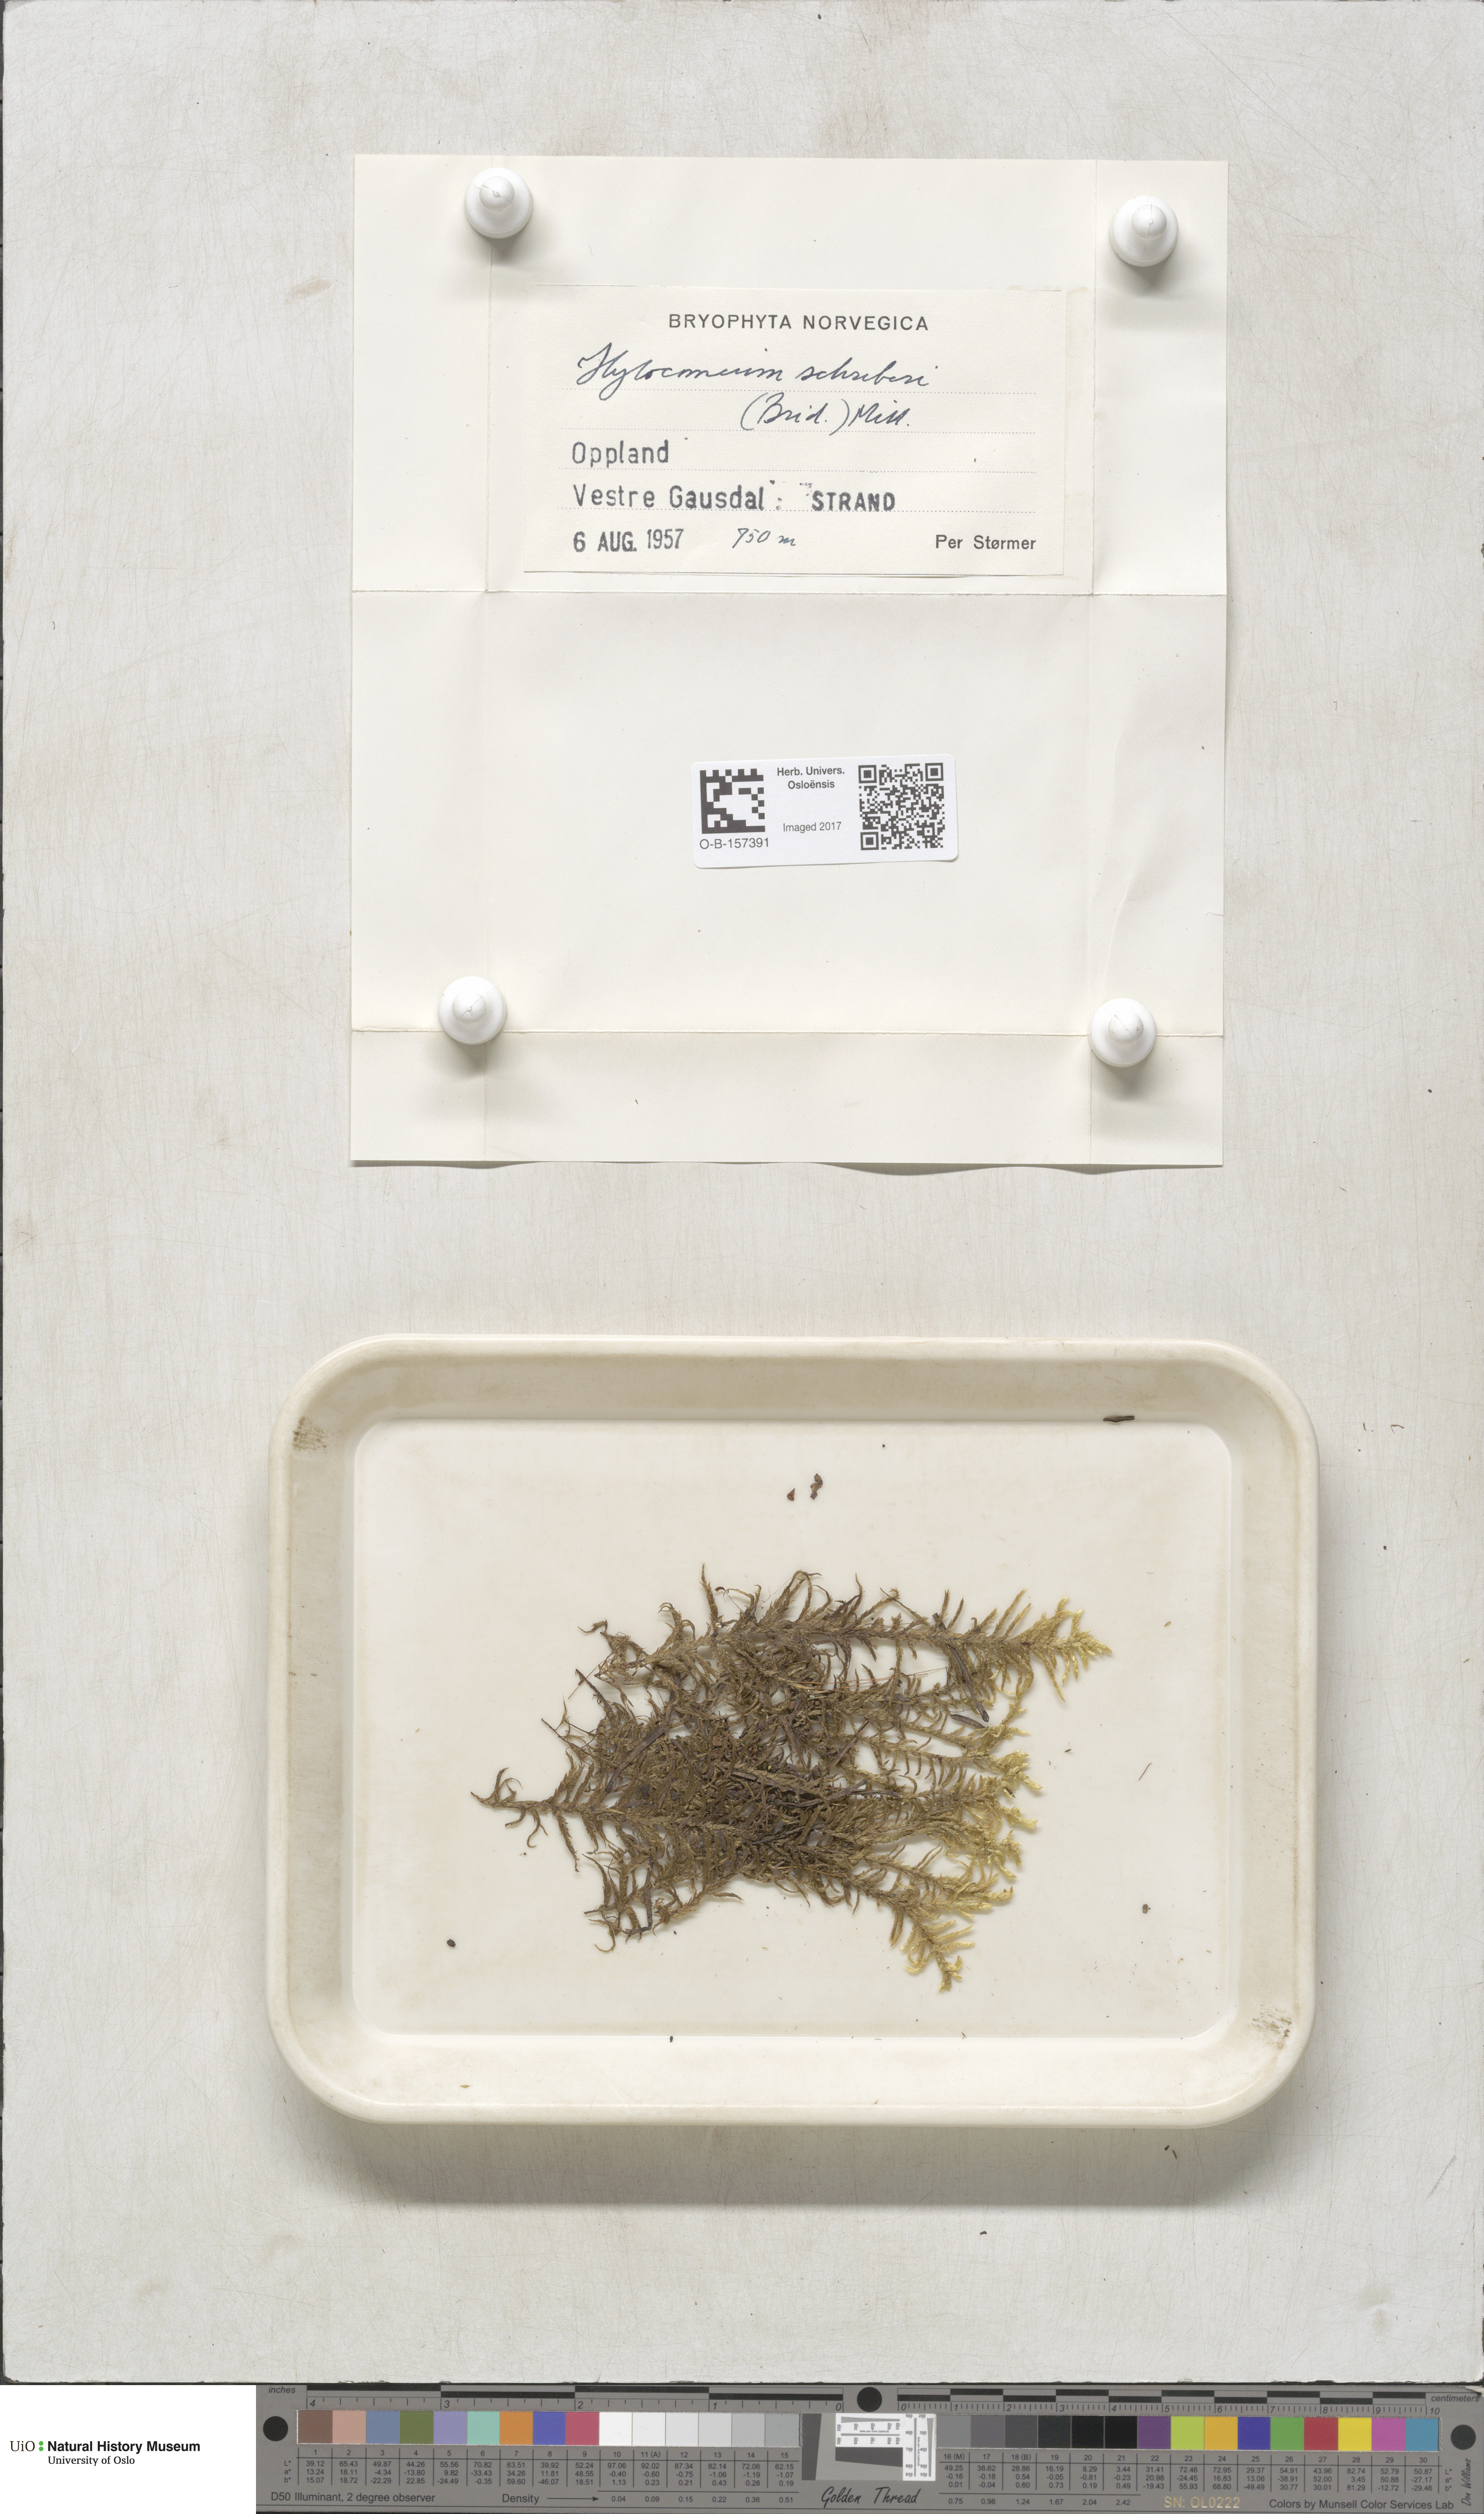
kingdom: Plantae
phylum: Bryophyta
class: Bryopsida
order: Hypnales
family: Hylocomiaceae
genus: Pleurozium
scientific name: Pleurozium schreberi
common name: Red-stemmed feather moss
